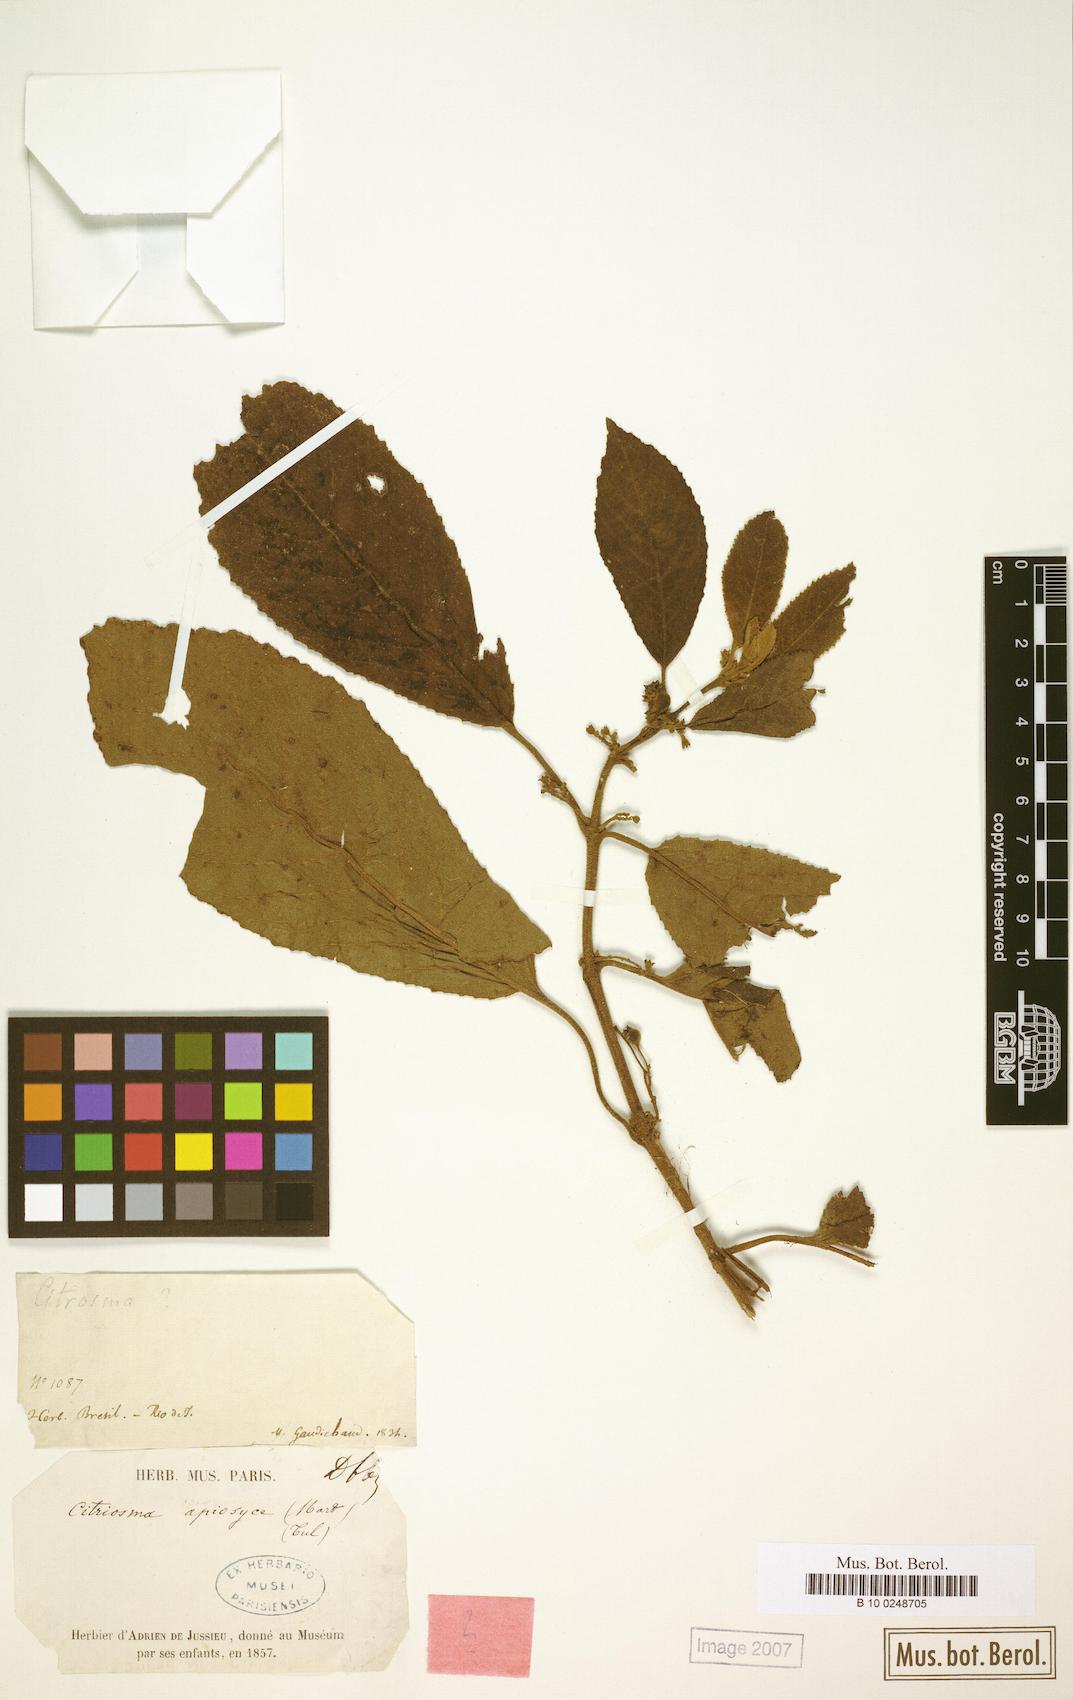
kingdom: Plantae
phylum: Tracheophyta
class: Magnoliopsida
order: Laurales
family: Siparunaceae
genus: Siparuna
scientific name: Siparuna brasiliensis
